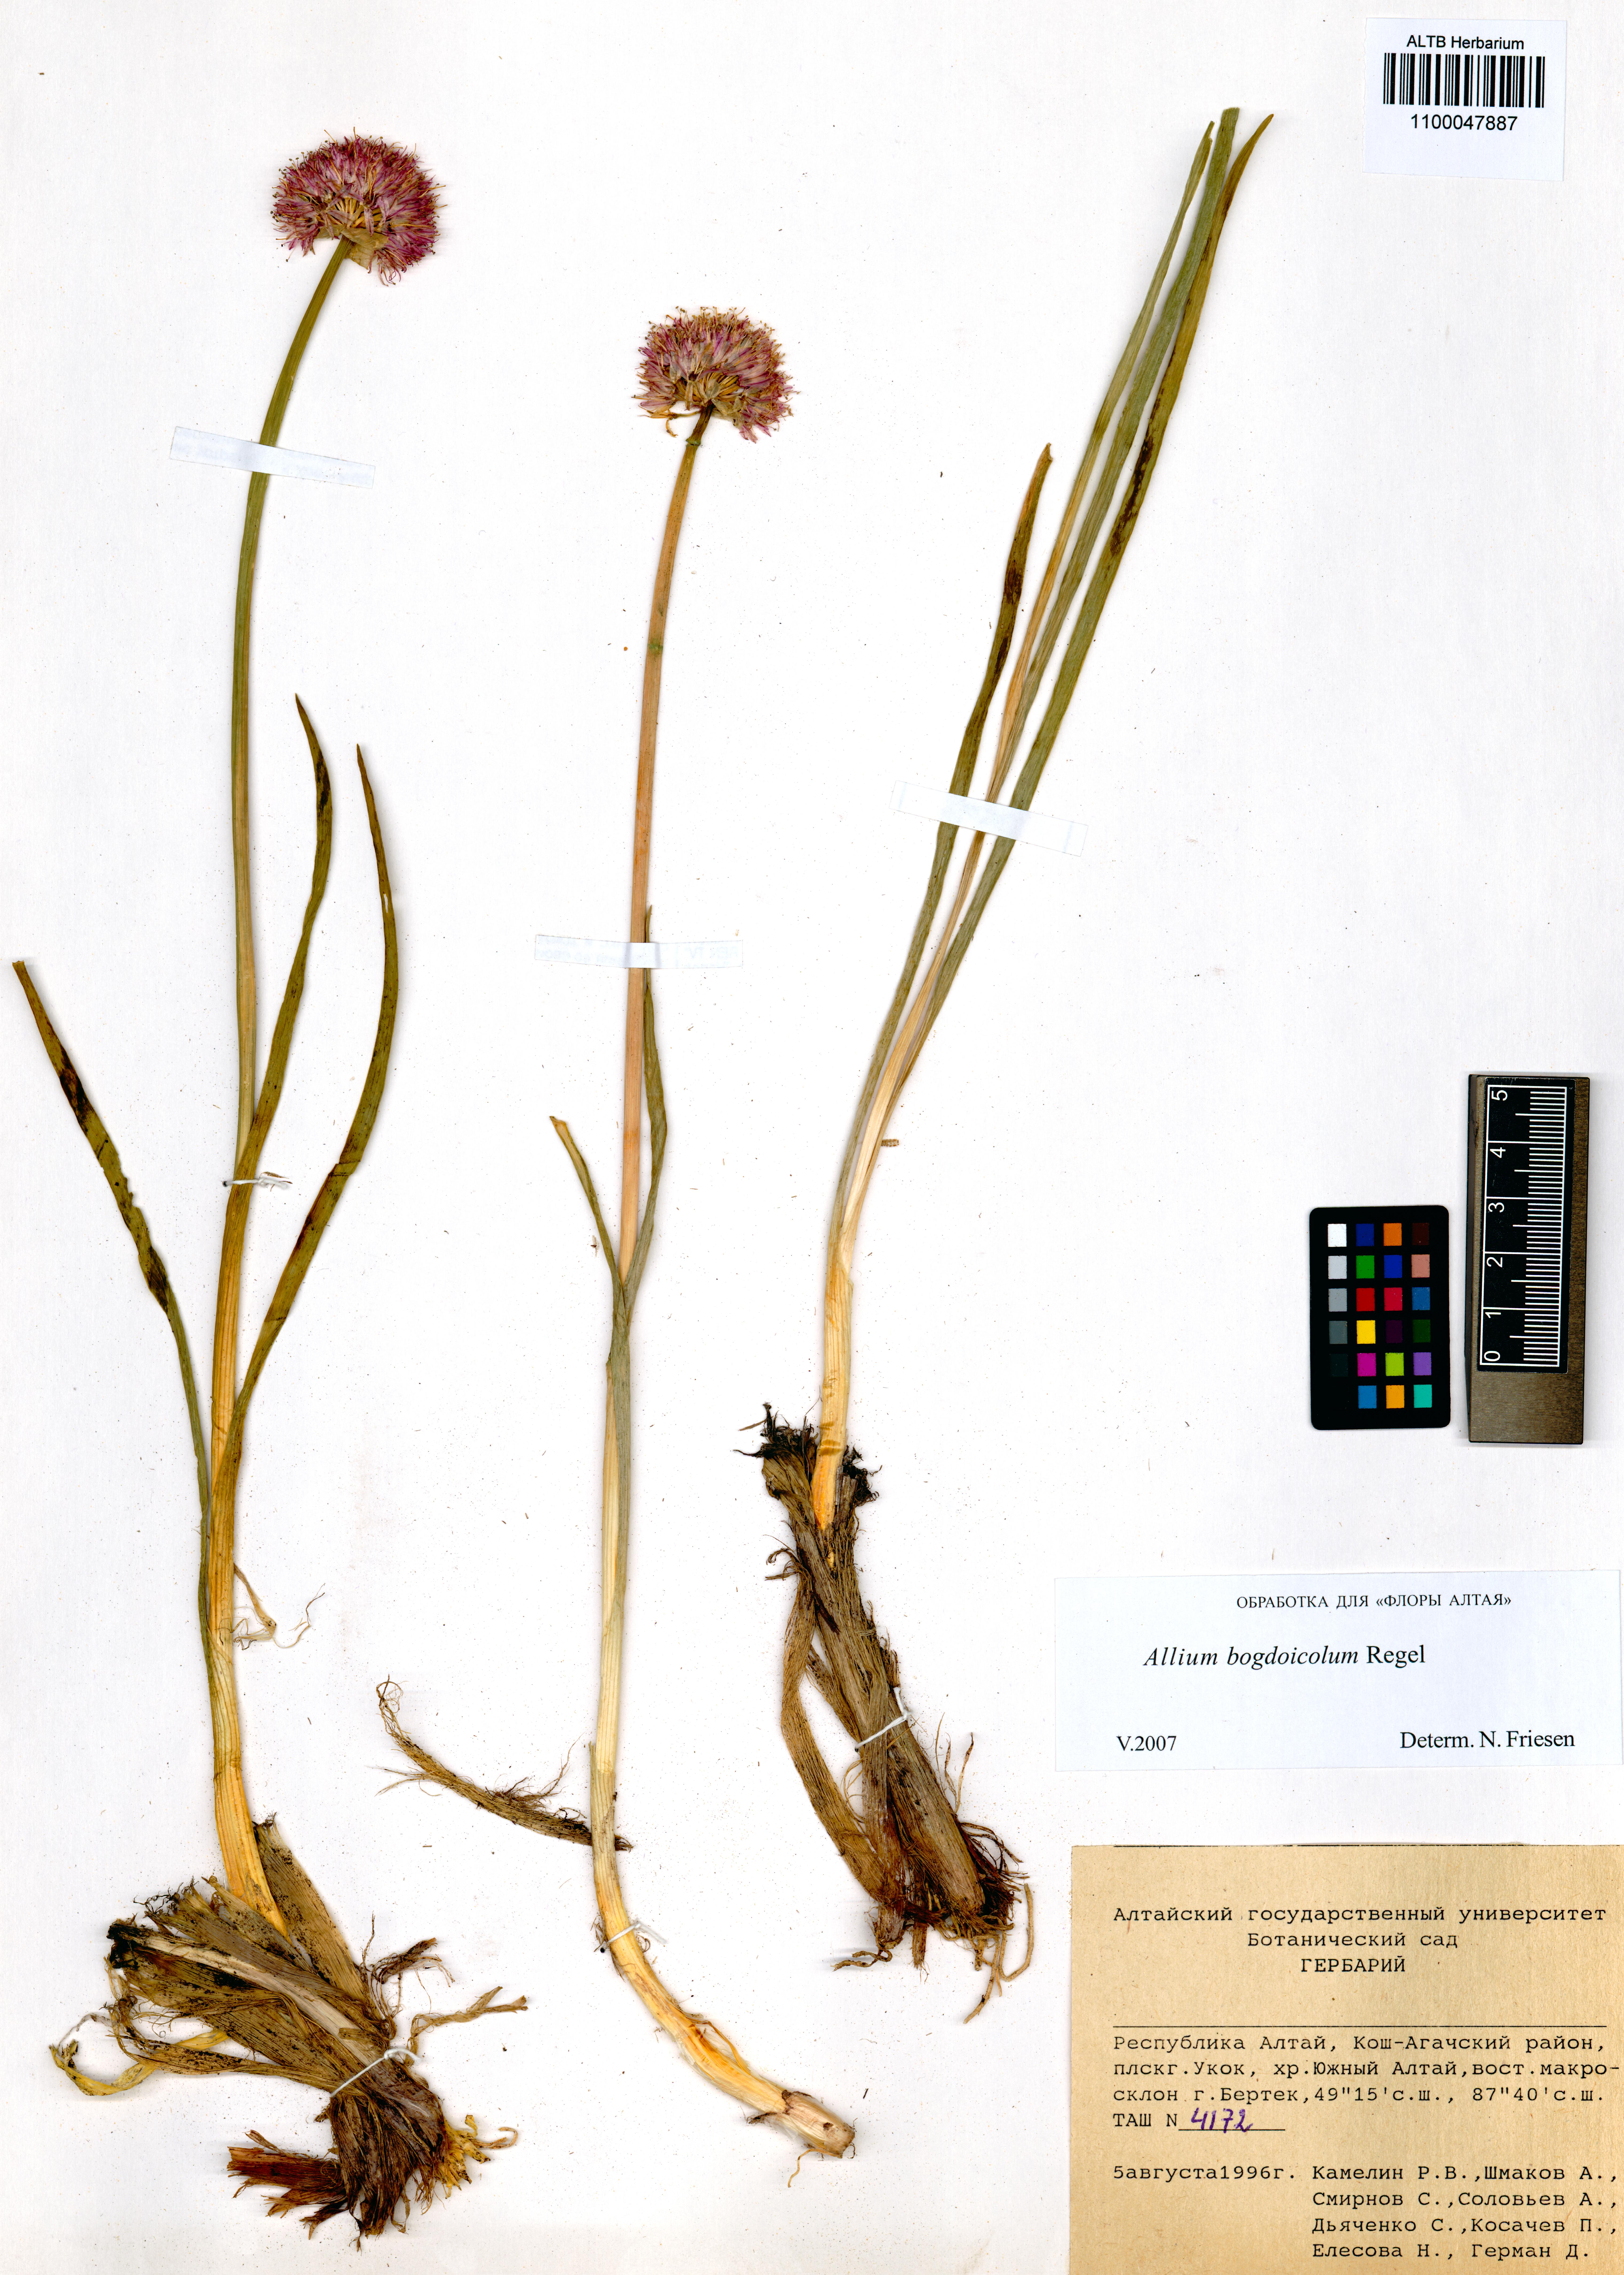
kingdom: Plantae
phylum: Tracheophyta
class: Liliopsida
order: Asparagales
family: Amaryllidaceae
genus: Allium
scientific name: Allium schrenkii
